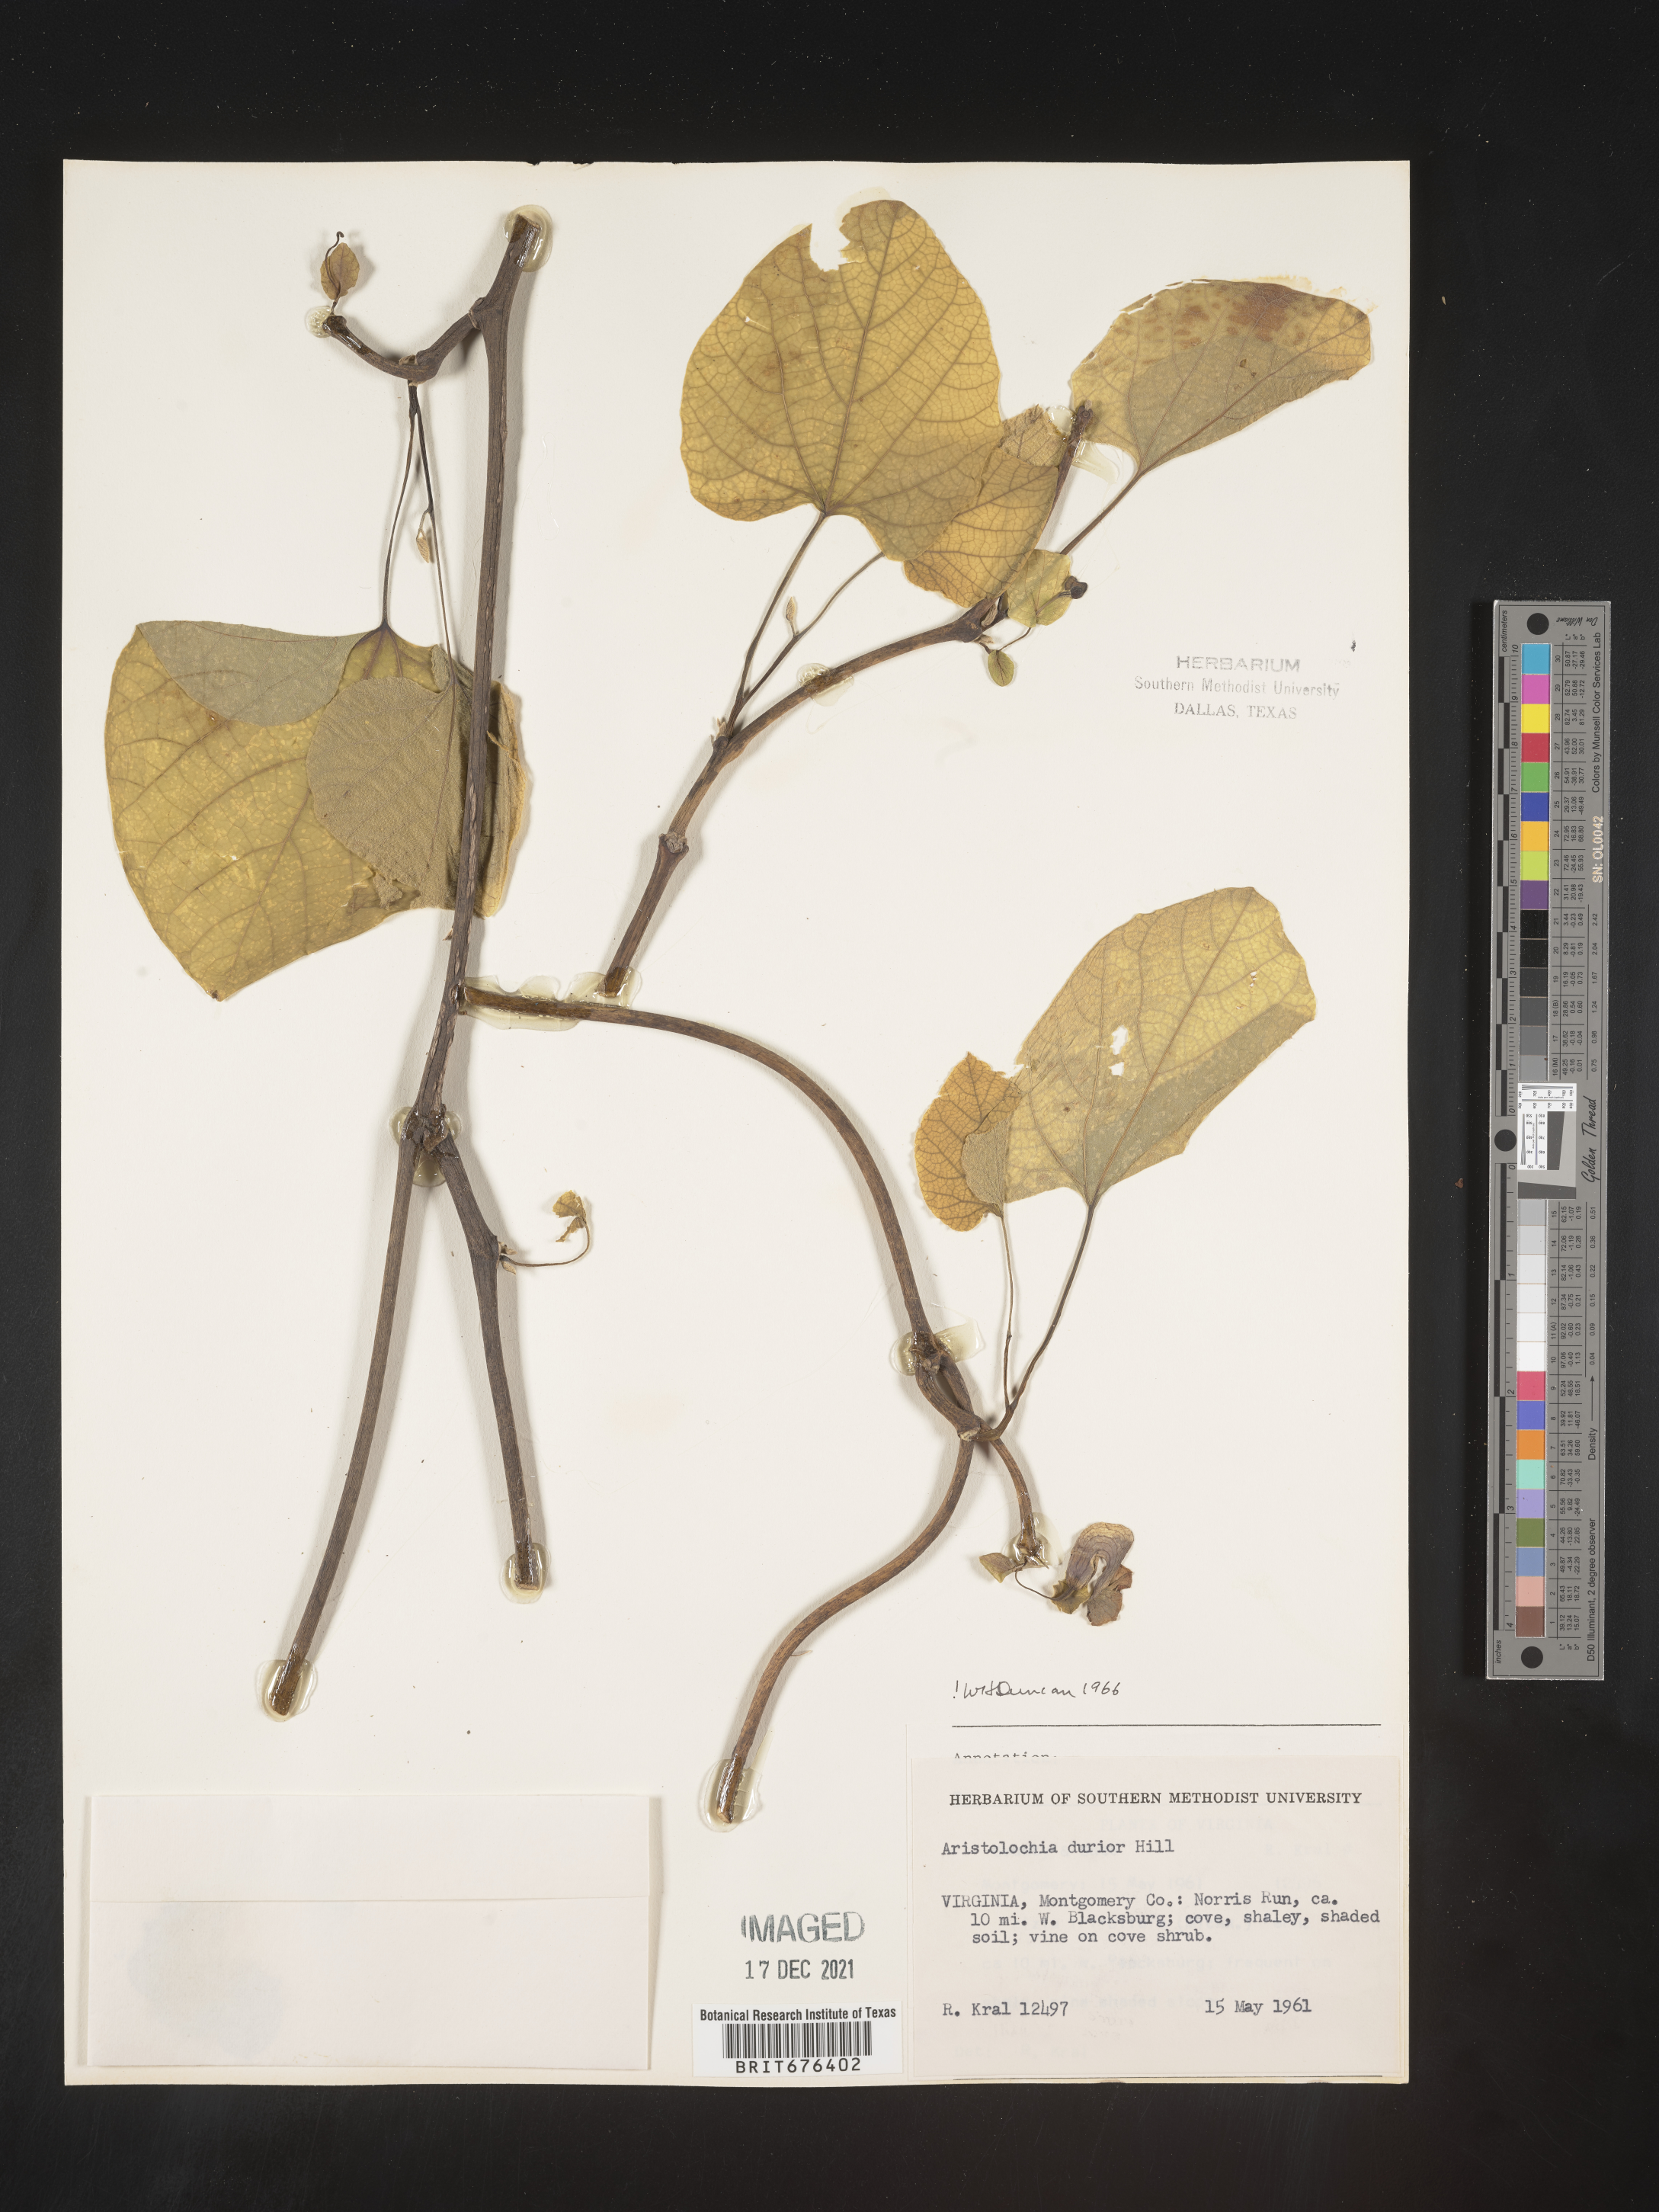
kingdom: Plantae
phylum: Tracheophyta
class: Magnoliopsida
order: Piperales
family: Aristolochiaceae
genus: Isotrema
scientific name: Isotrema macrophyllum
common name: Dutchman's-pipe
